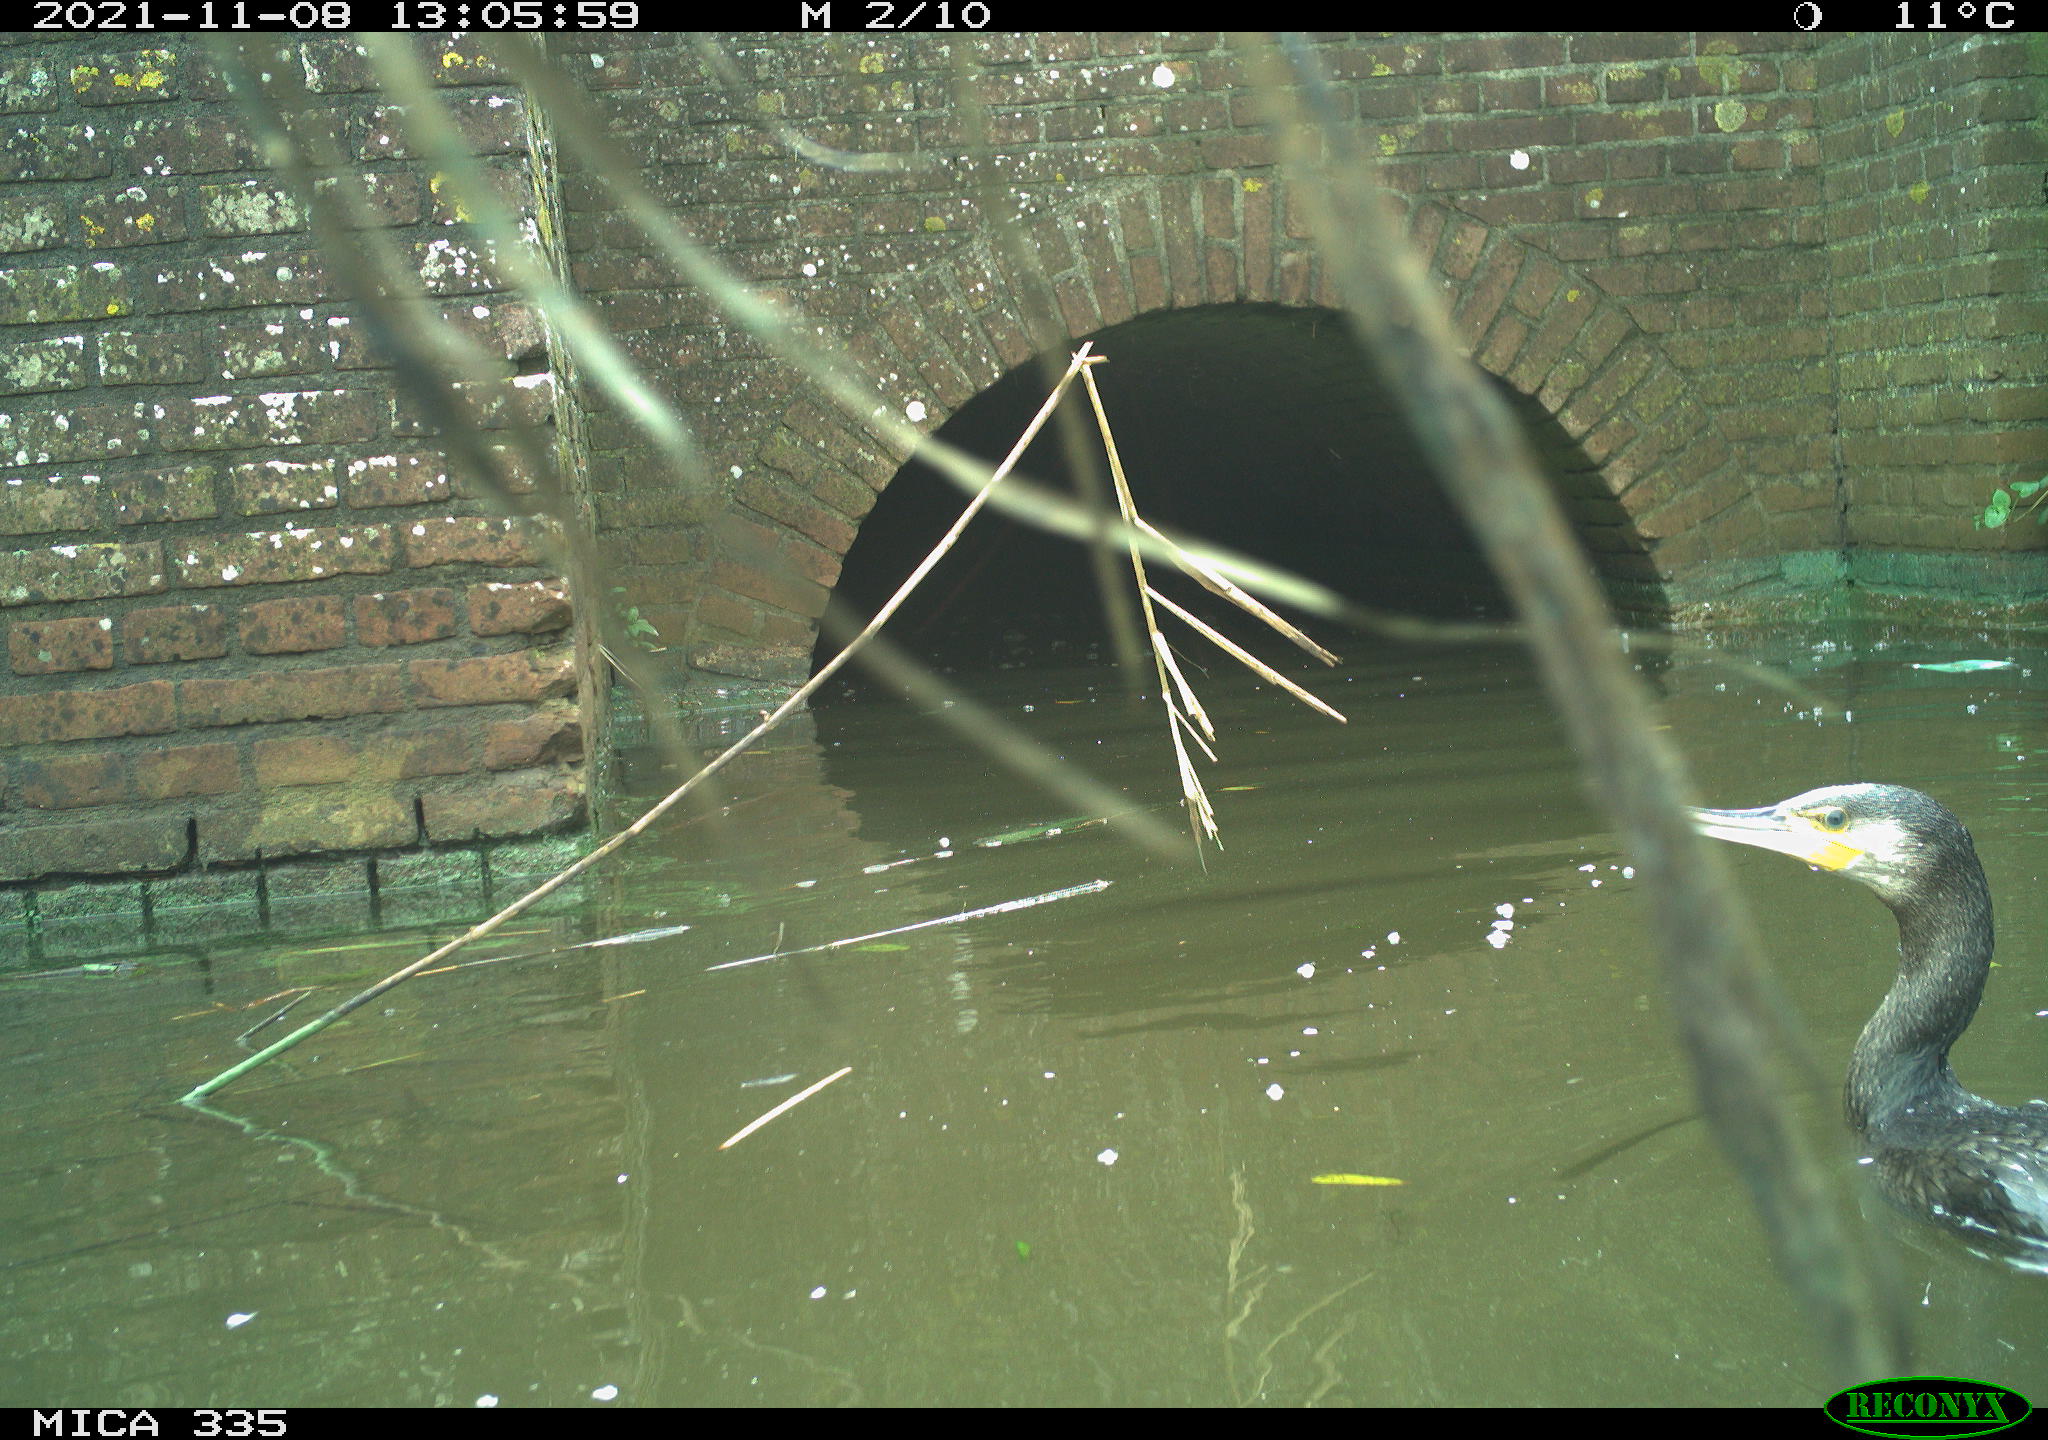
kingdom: Animalia
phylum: Chordata
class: Aves
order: Suliformes
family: Phalacrocoracidae
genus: Phalacrocorax
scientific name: Phalacrocorax carbo
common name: Great cormorant
